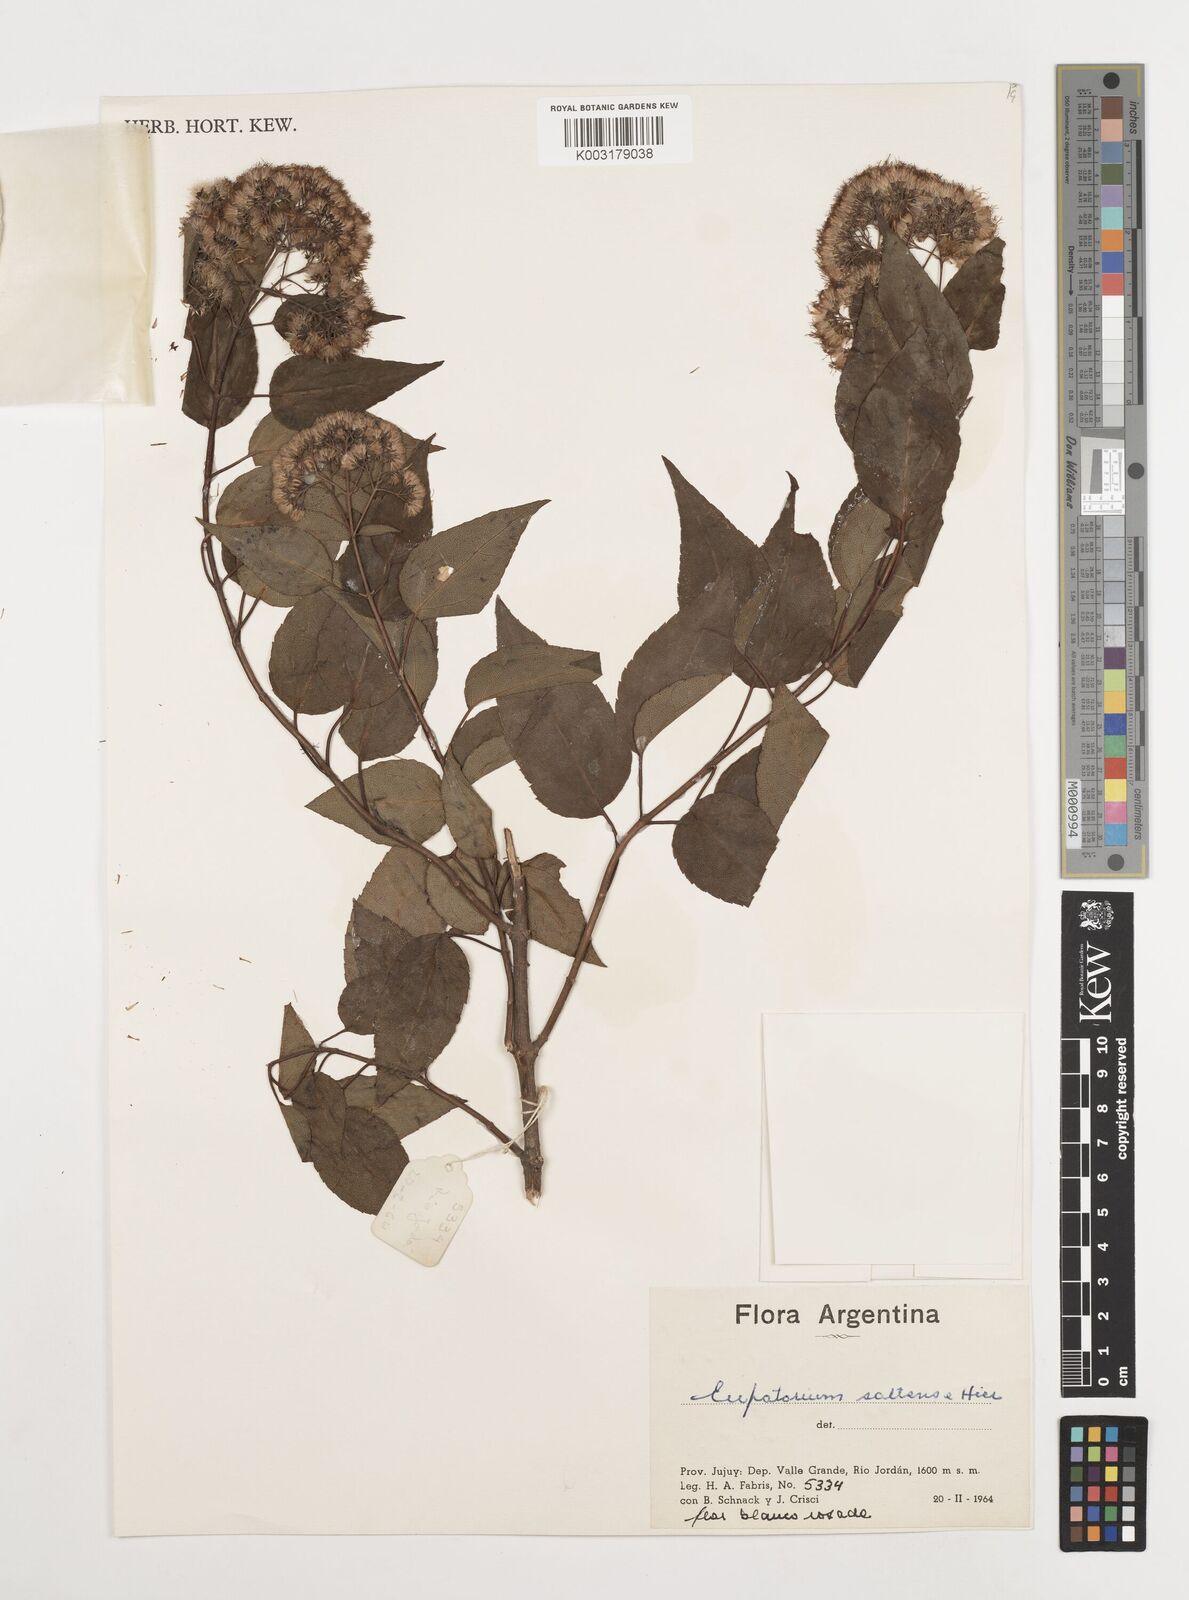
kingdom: Plantae
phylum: Tracheophyta
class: Magnoliopsida
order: Asterales
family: Asteraceae
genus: Kaunia
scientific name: Kaunia saltensis
